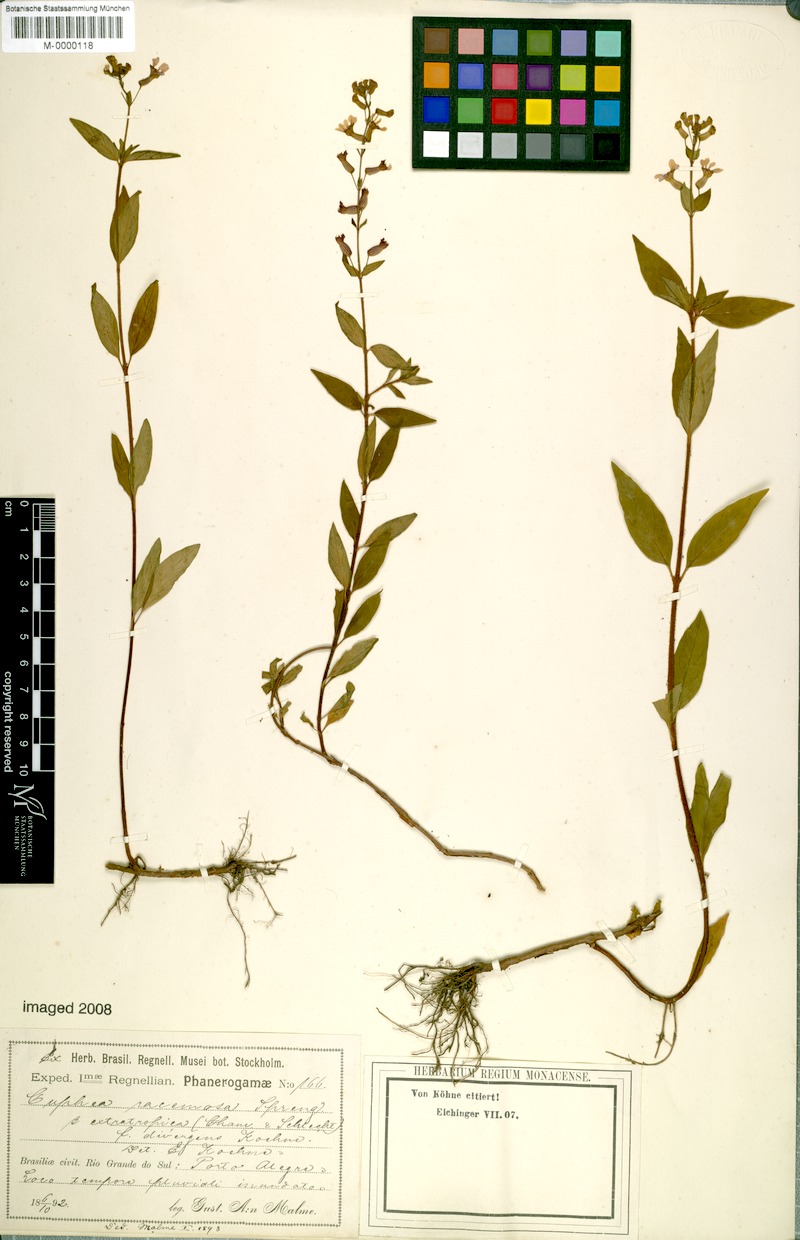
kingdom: Plantae
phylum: Tracheophyta
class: Magnoliopsida
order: Myrtales
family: Lythraceae
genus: Cuphea
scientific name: Cuphea racemosa
